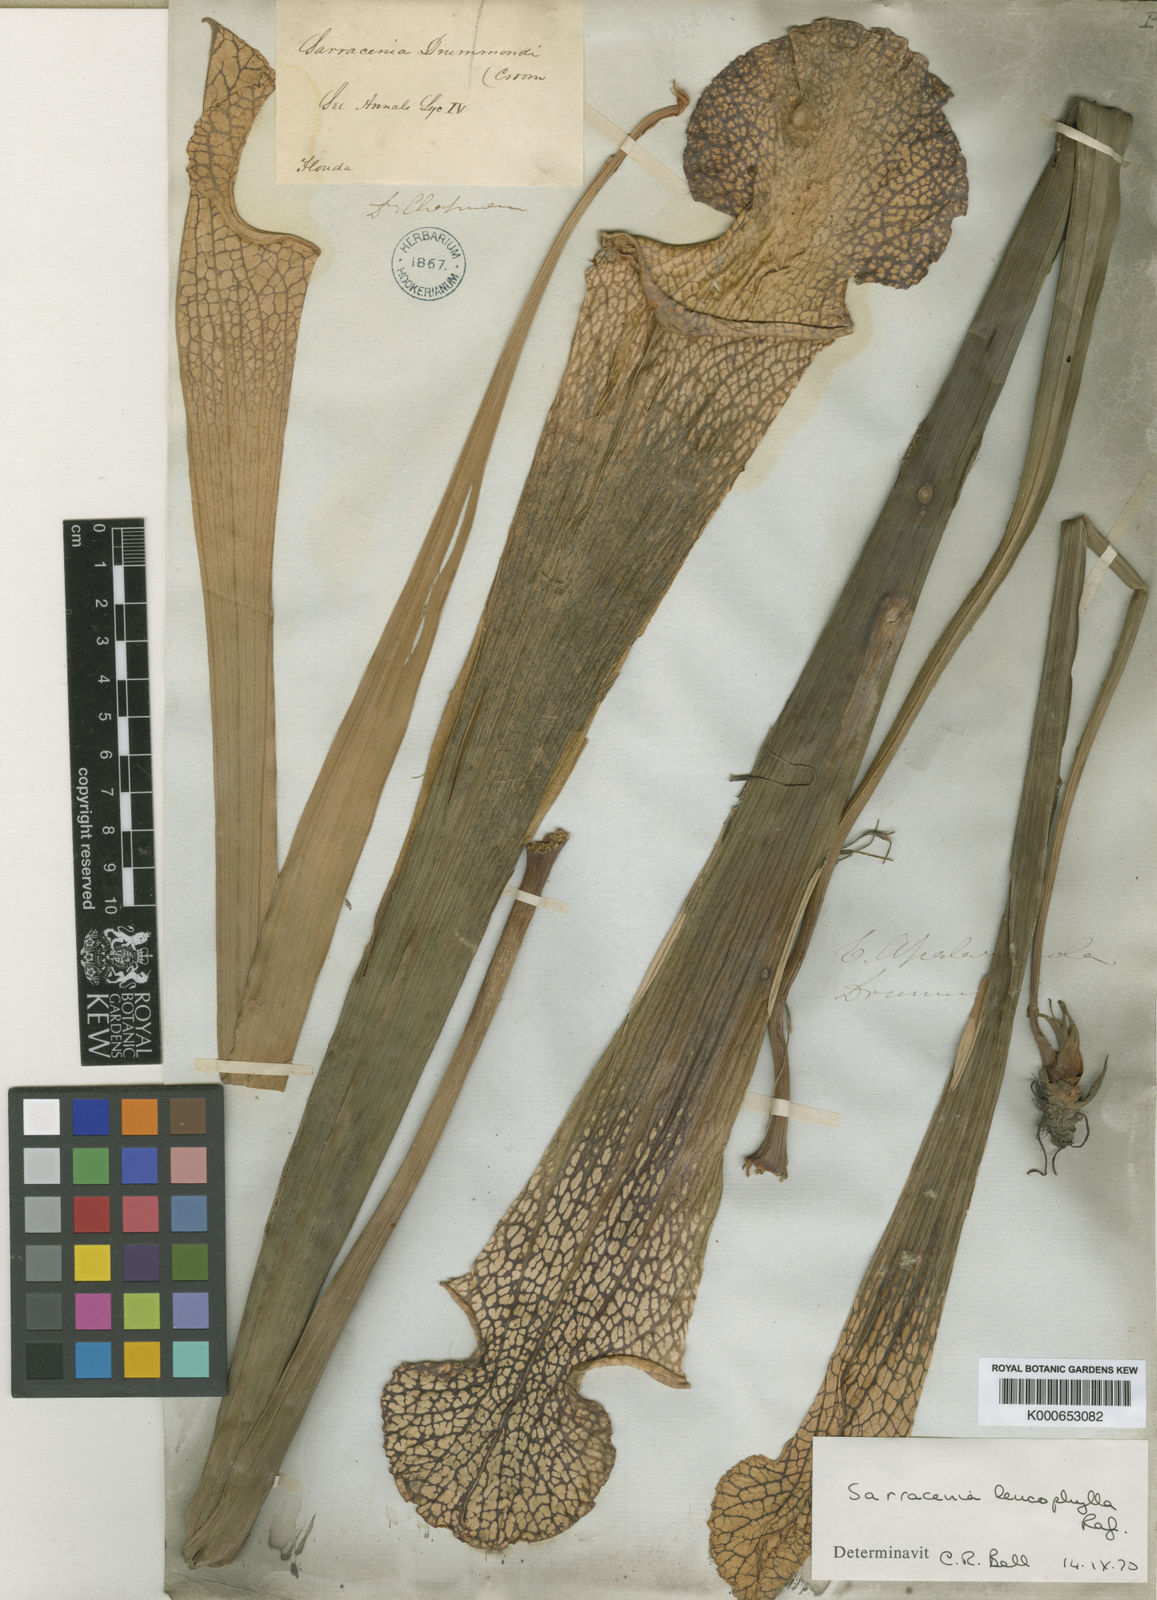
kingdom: Plantae
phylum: Tracheophyta
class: Magnoliopsida
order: Ericales
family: Sarraceniaceae
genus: Sarracenia
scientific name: Sarracenia leucophylla
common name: Purple trumpetleaf
